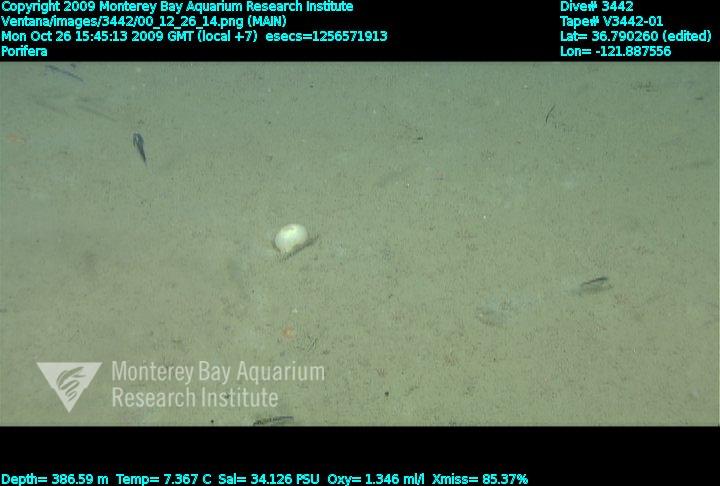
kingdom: Animalia
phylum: Porifera
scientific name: Porifera
